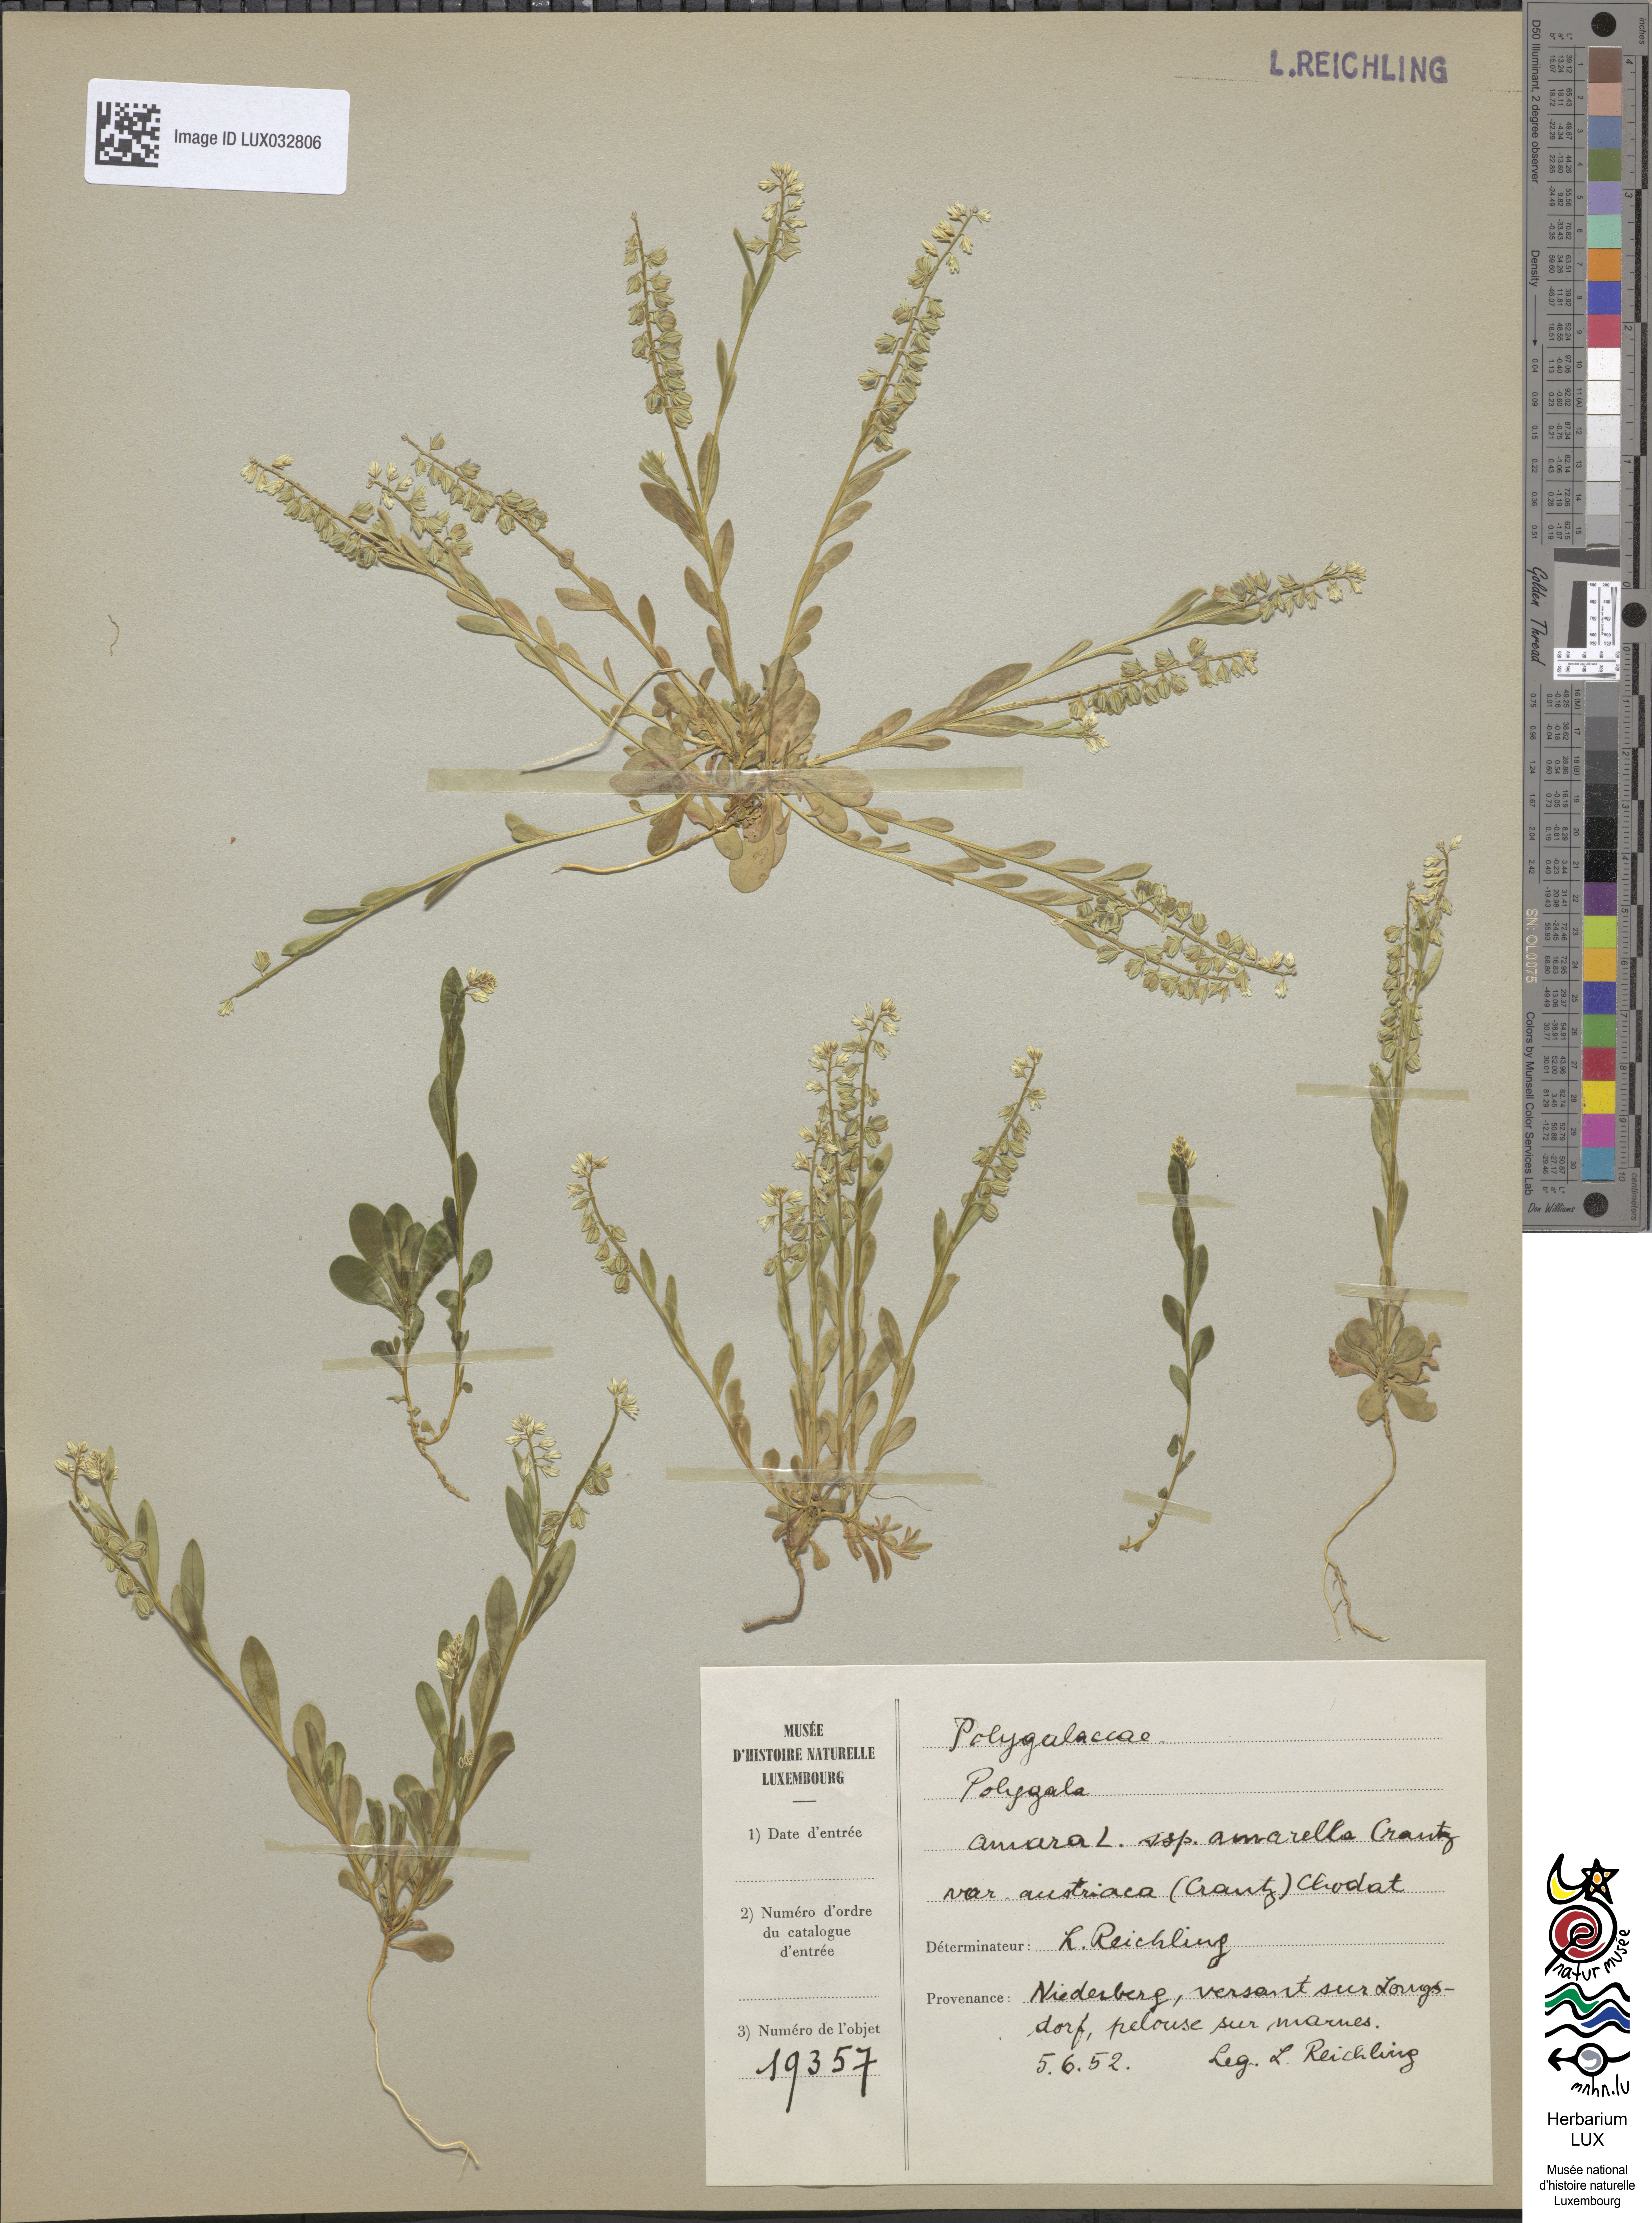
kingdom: Plantae
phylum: Tracheophyta
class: Magnoliopsida
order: Fabales
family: Polygalaceae
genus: Polygala
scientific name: Polygala amarella
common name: Dwarf milkwort
